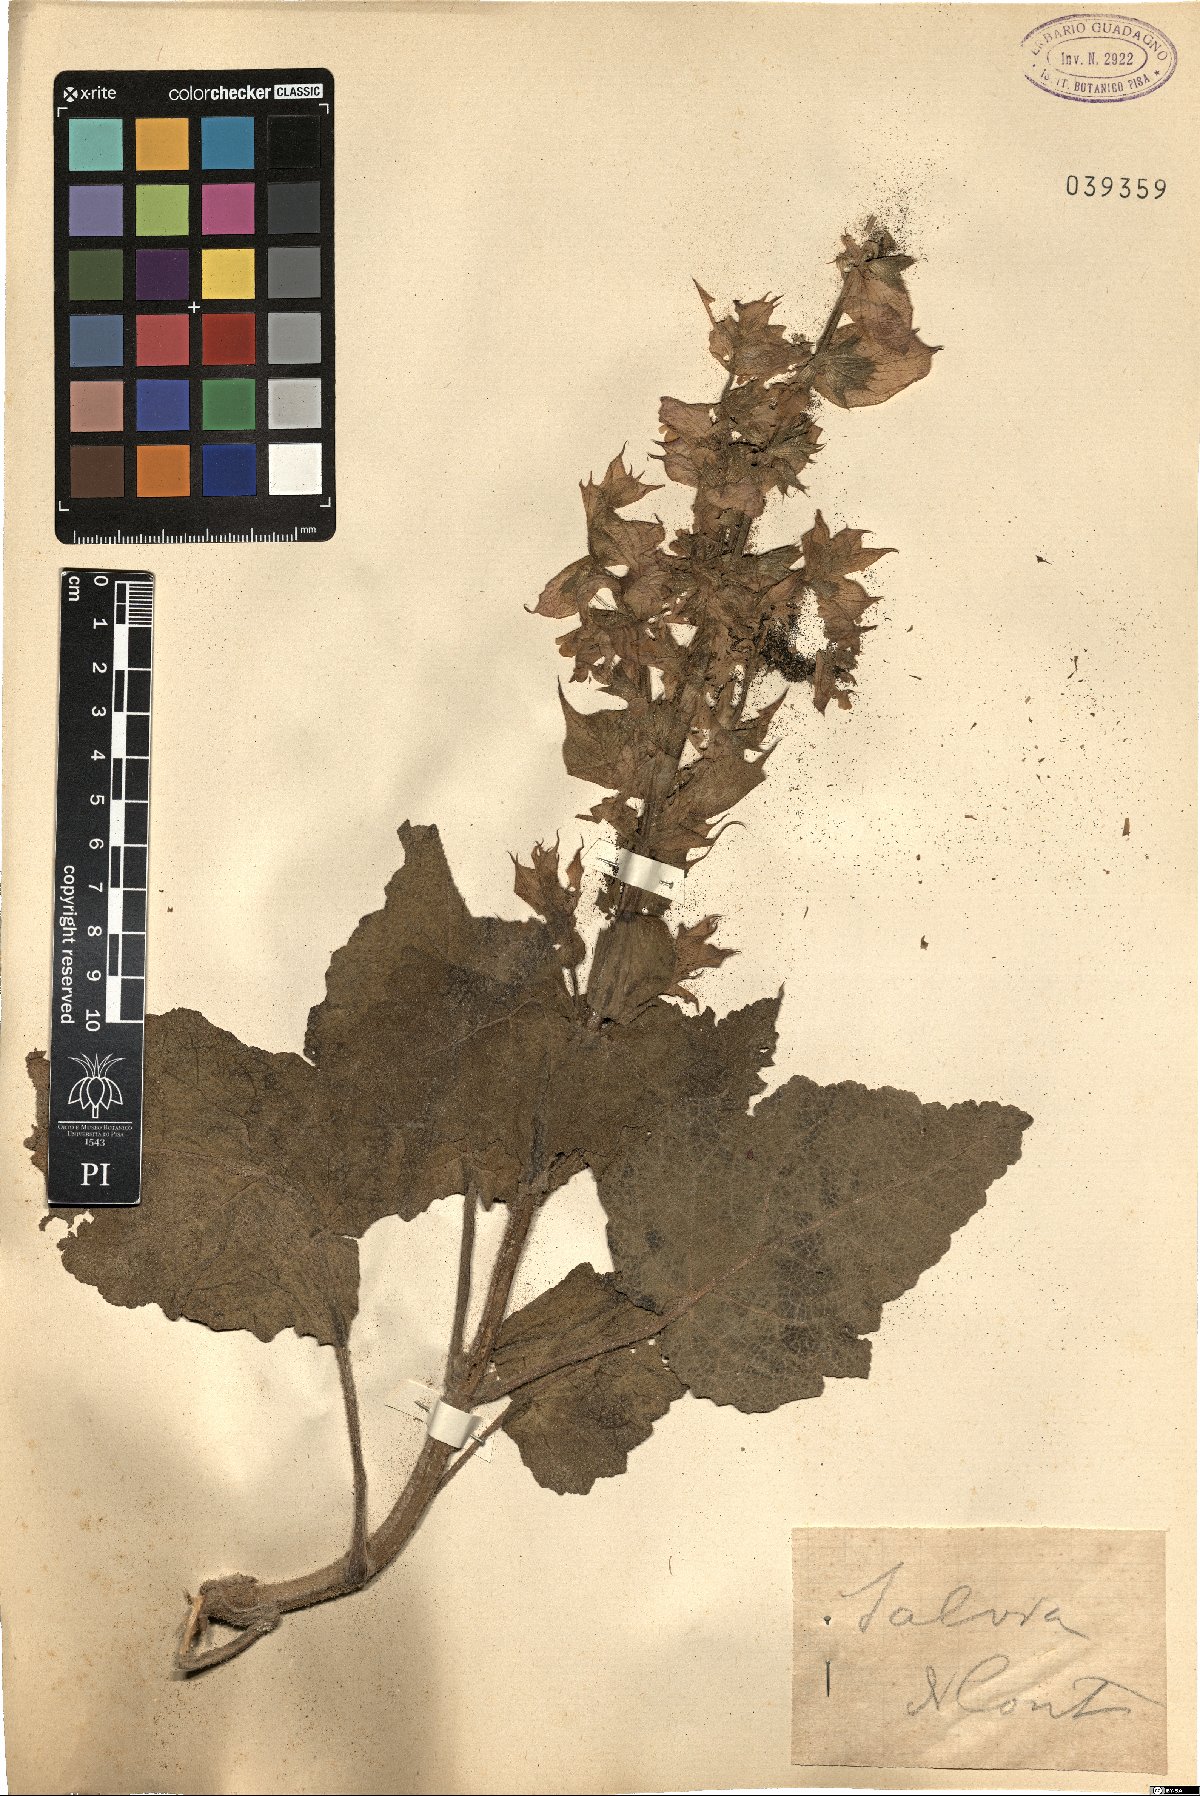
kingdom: Plantae
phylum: Tracheophyta
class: Magnoliopsida
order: Lamiales
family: Lamiaceae
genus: Salvia
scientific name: Salvia
